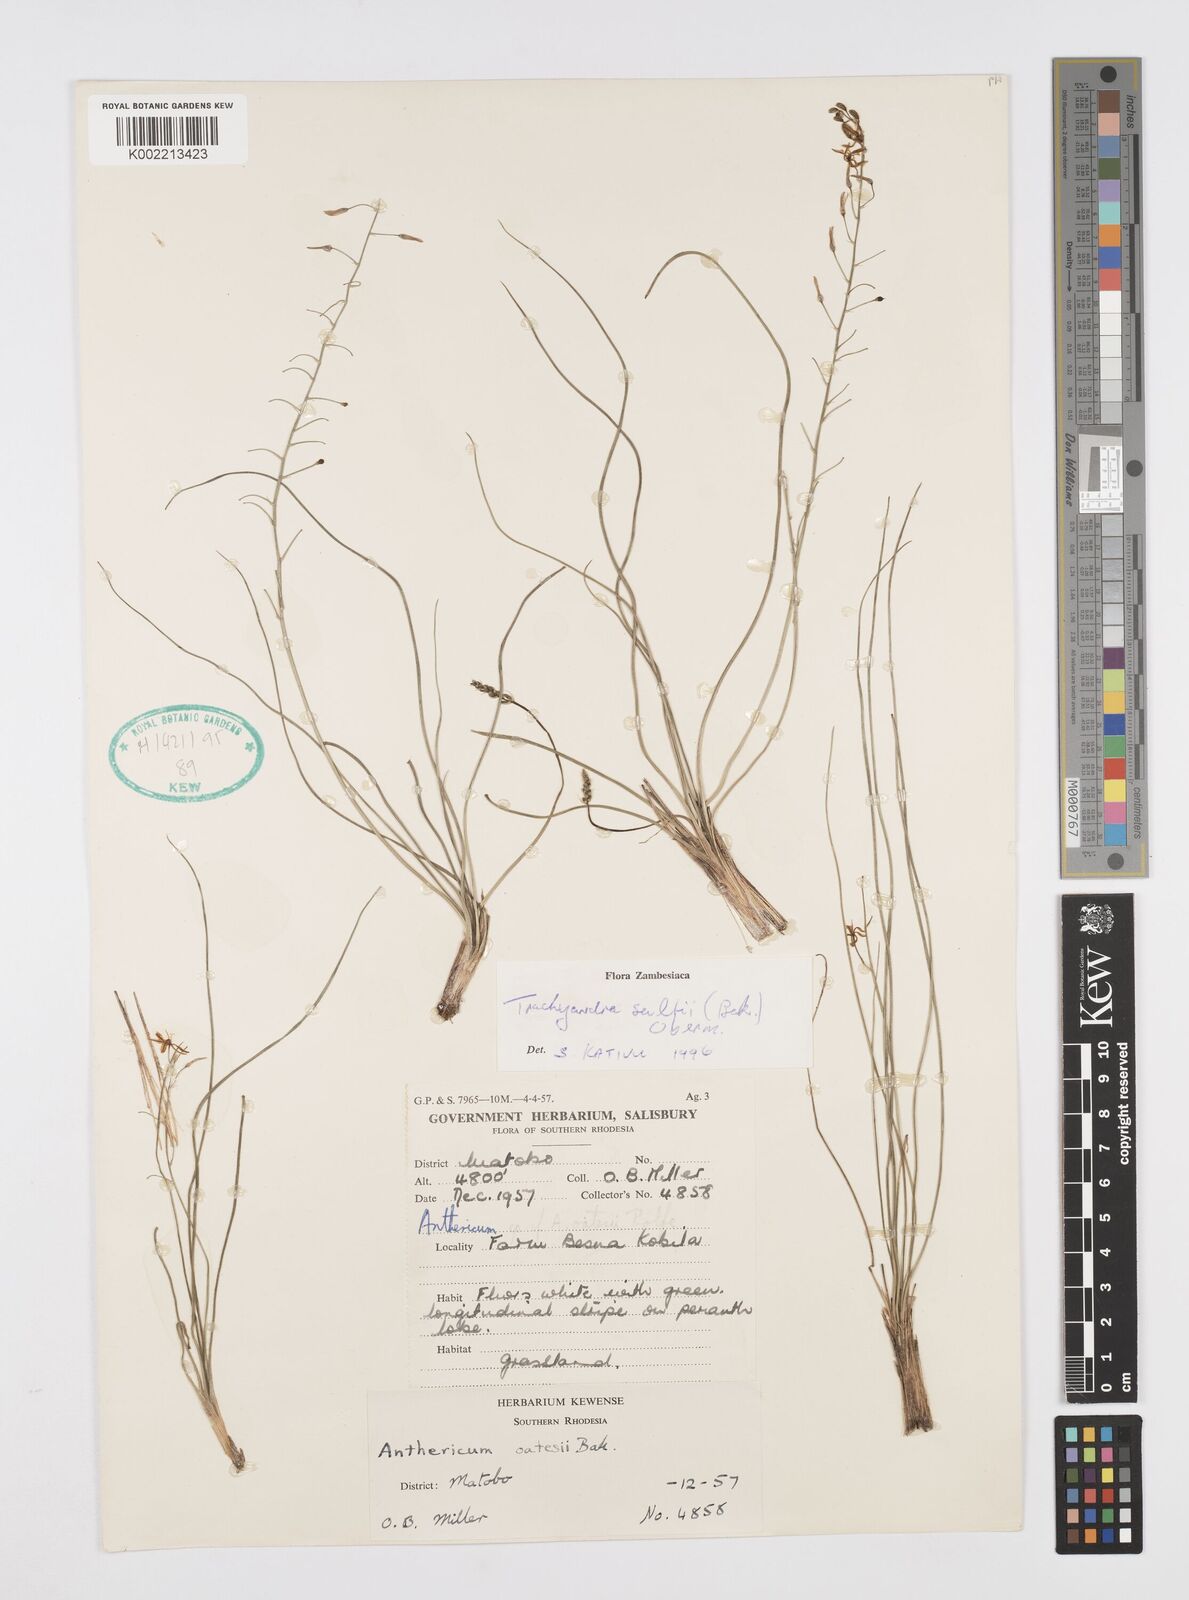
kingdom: Plantae
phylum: Tracheophyta
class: Liliopsida
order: Asparagales
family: Asphodelaceae
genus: Trachyandra
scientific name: Trachyandra saltii
